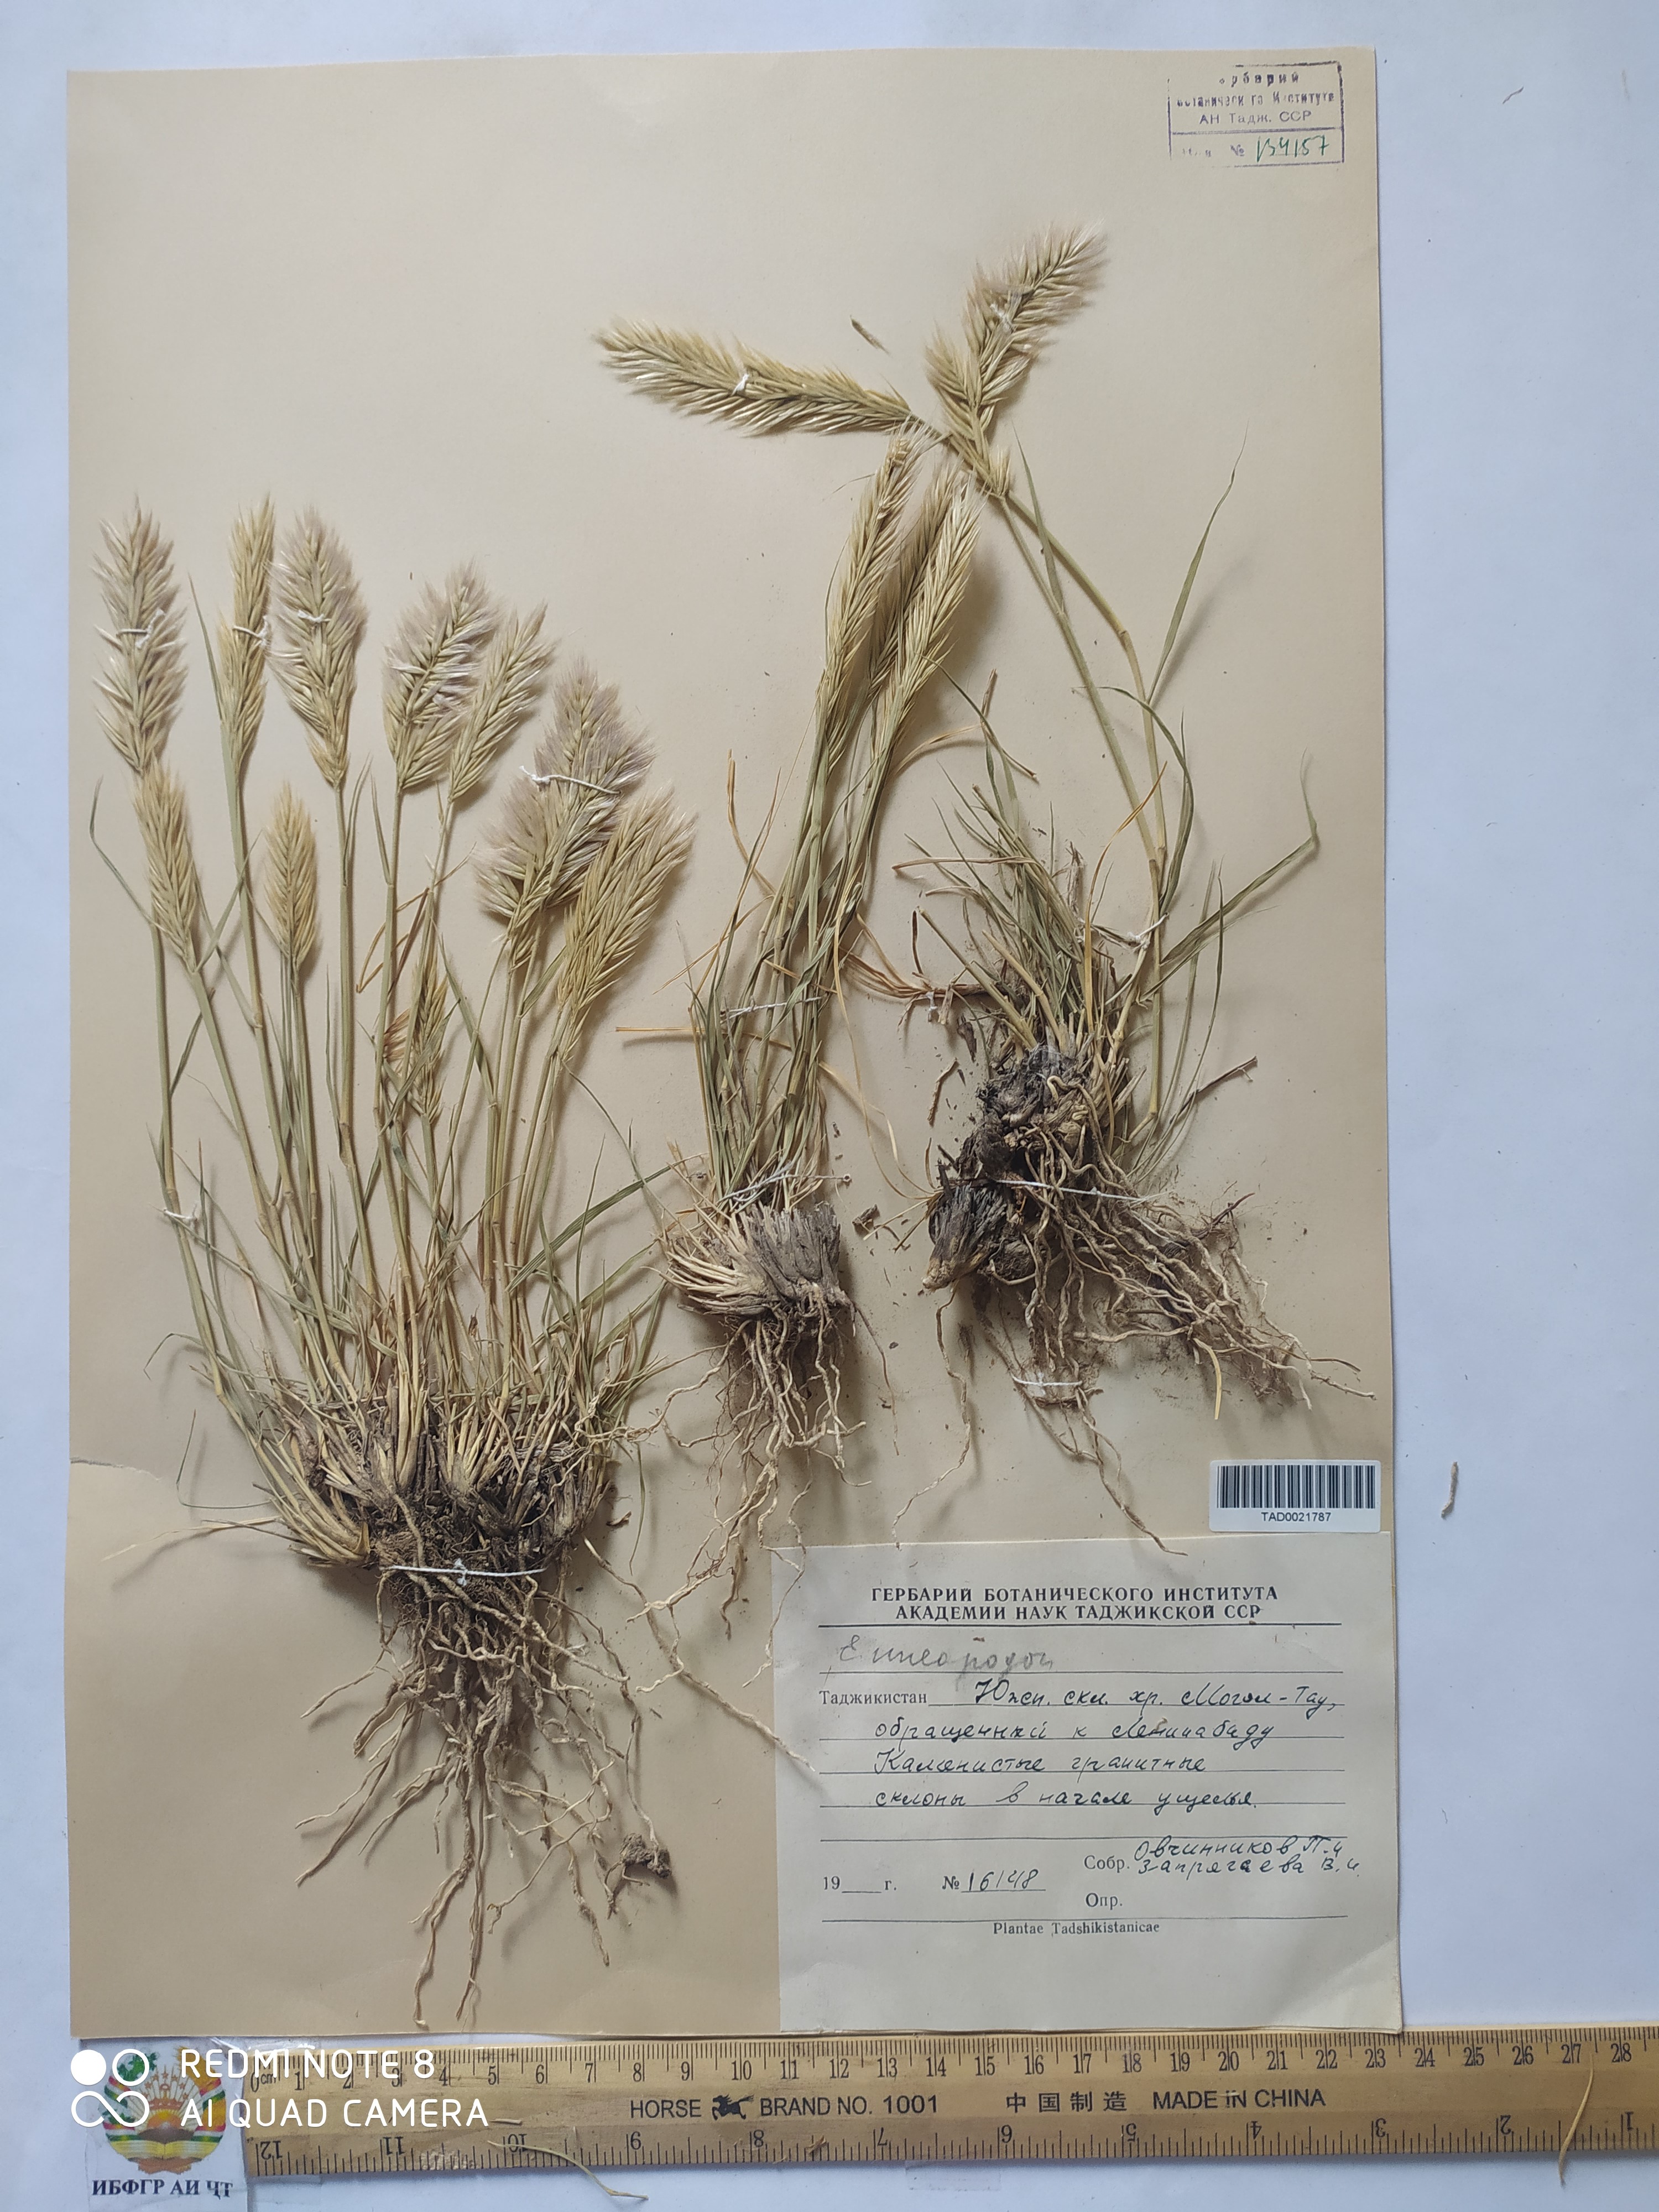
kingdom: Plantae
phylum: Tracheophyta
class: Liliopsida
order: Poales
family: Poaceae
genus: Enneapogon
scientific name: Enneapogon persicus
